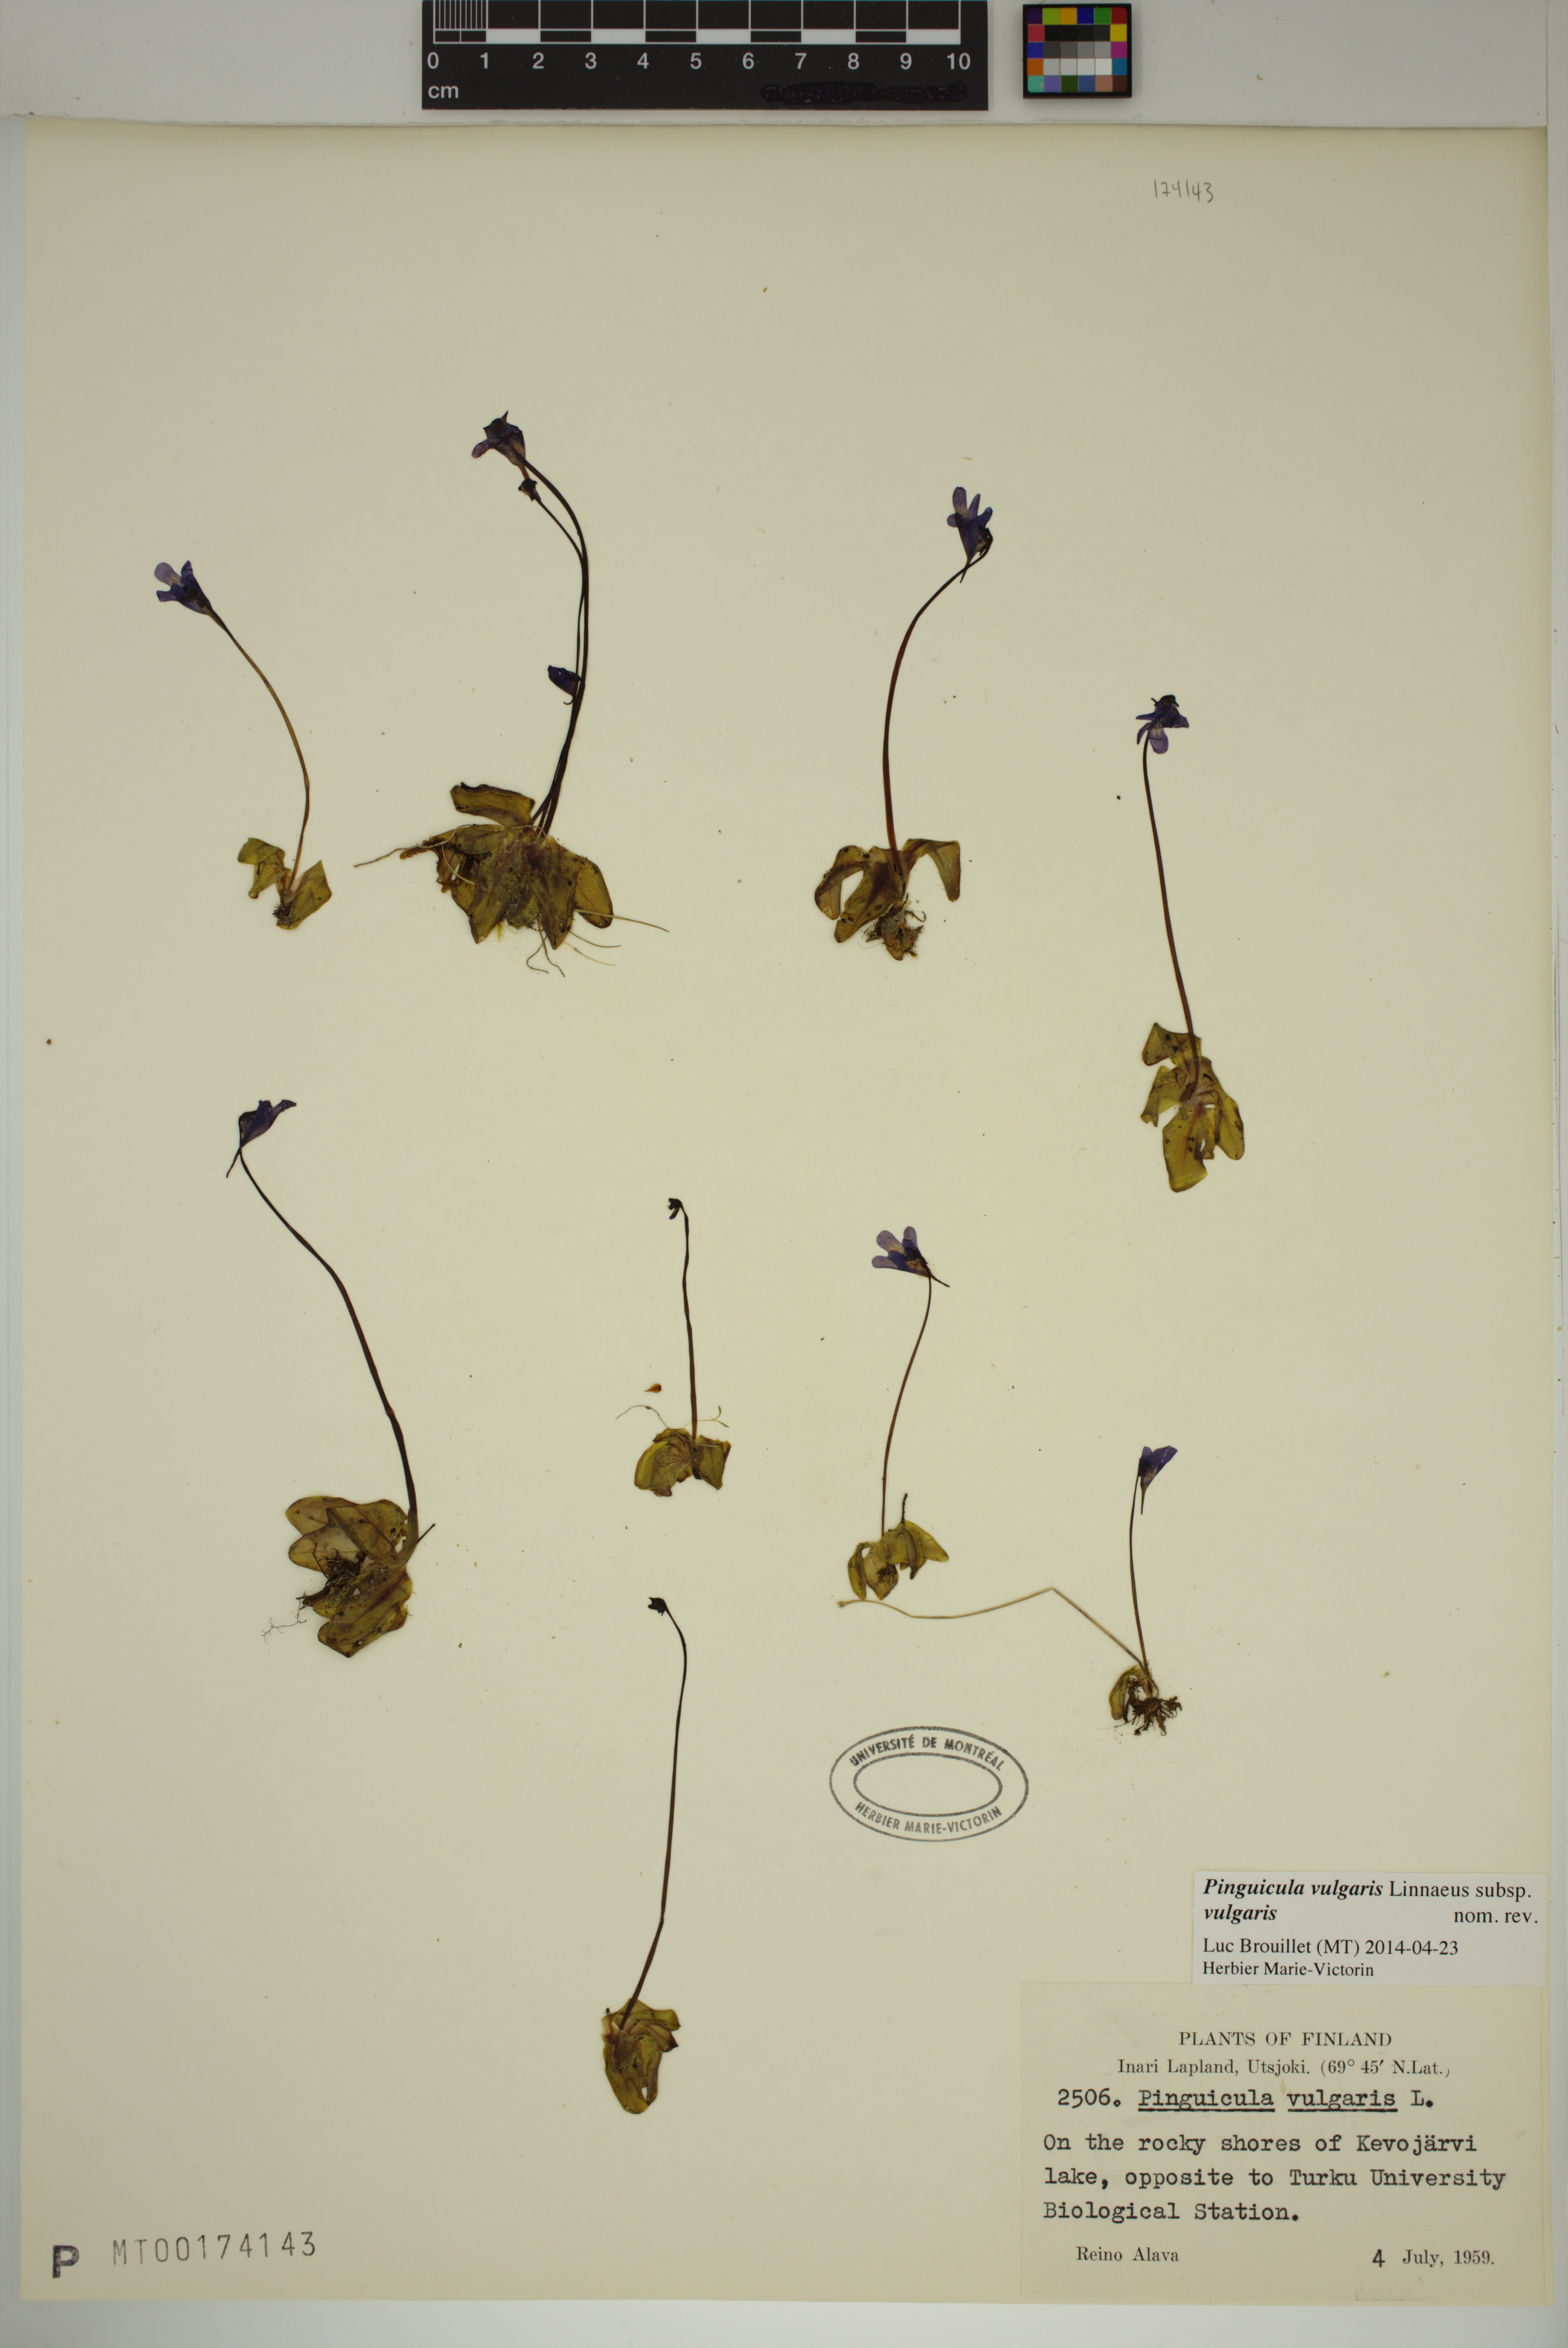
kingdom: Plantae
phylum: Tracheophyta
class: Magnoliopsida
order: Lamiales
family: Lentibulariaceae
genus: Pinguicula
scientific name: Pinguicula vulgaris
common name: Common butterwort
